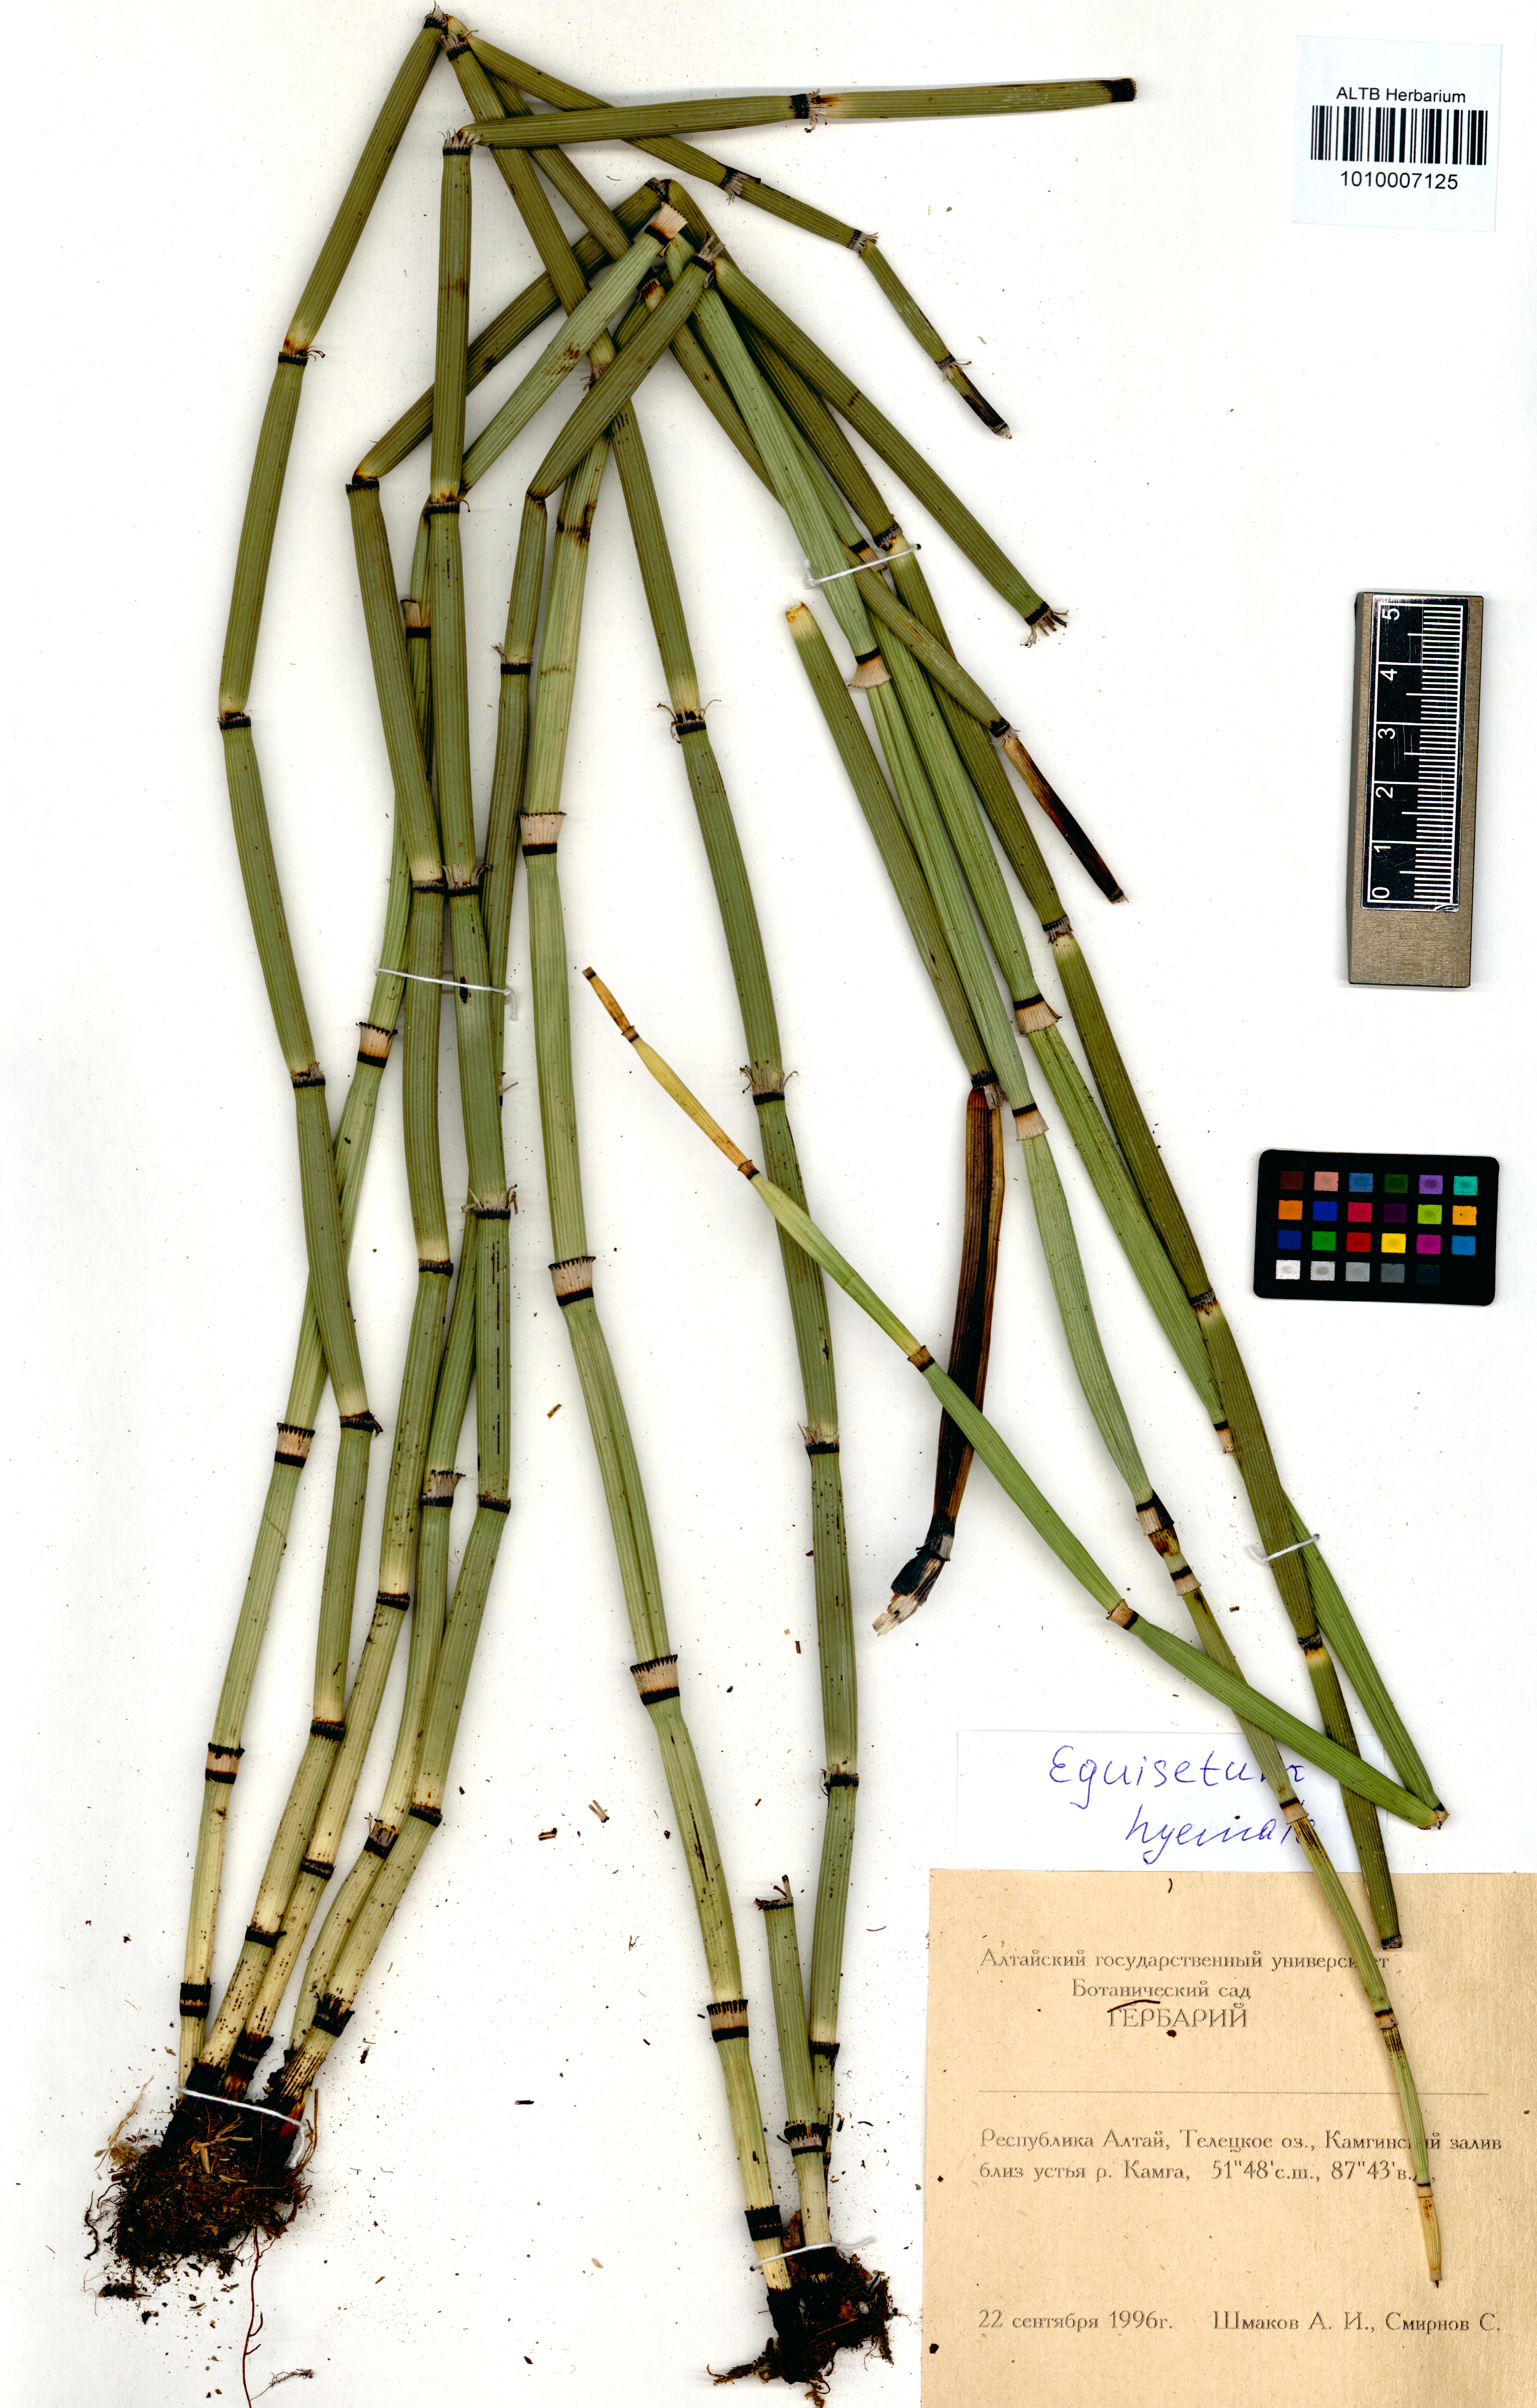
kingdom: Plantae
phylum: Tracheophyta
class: Polypodiopsida
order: Equisetales
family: Equisetaceae
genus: Equisetum
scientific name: Equisetum hyemale
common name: Rough horsetail
